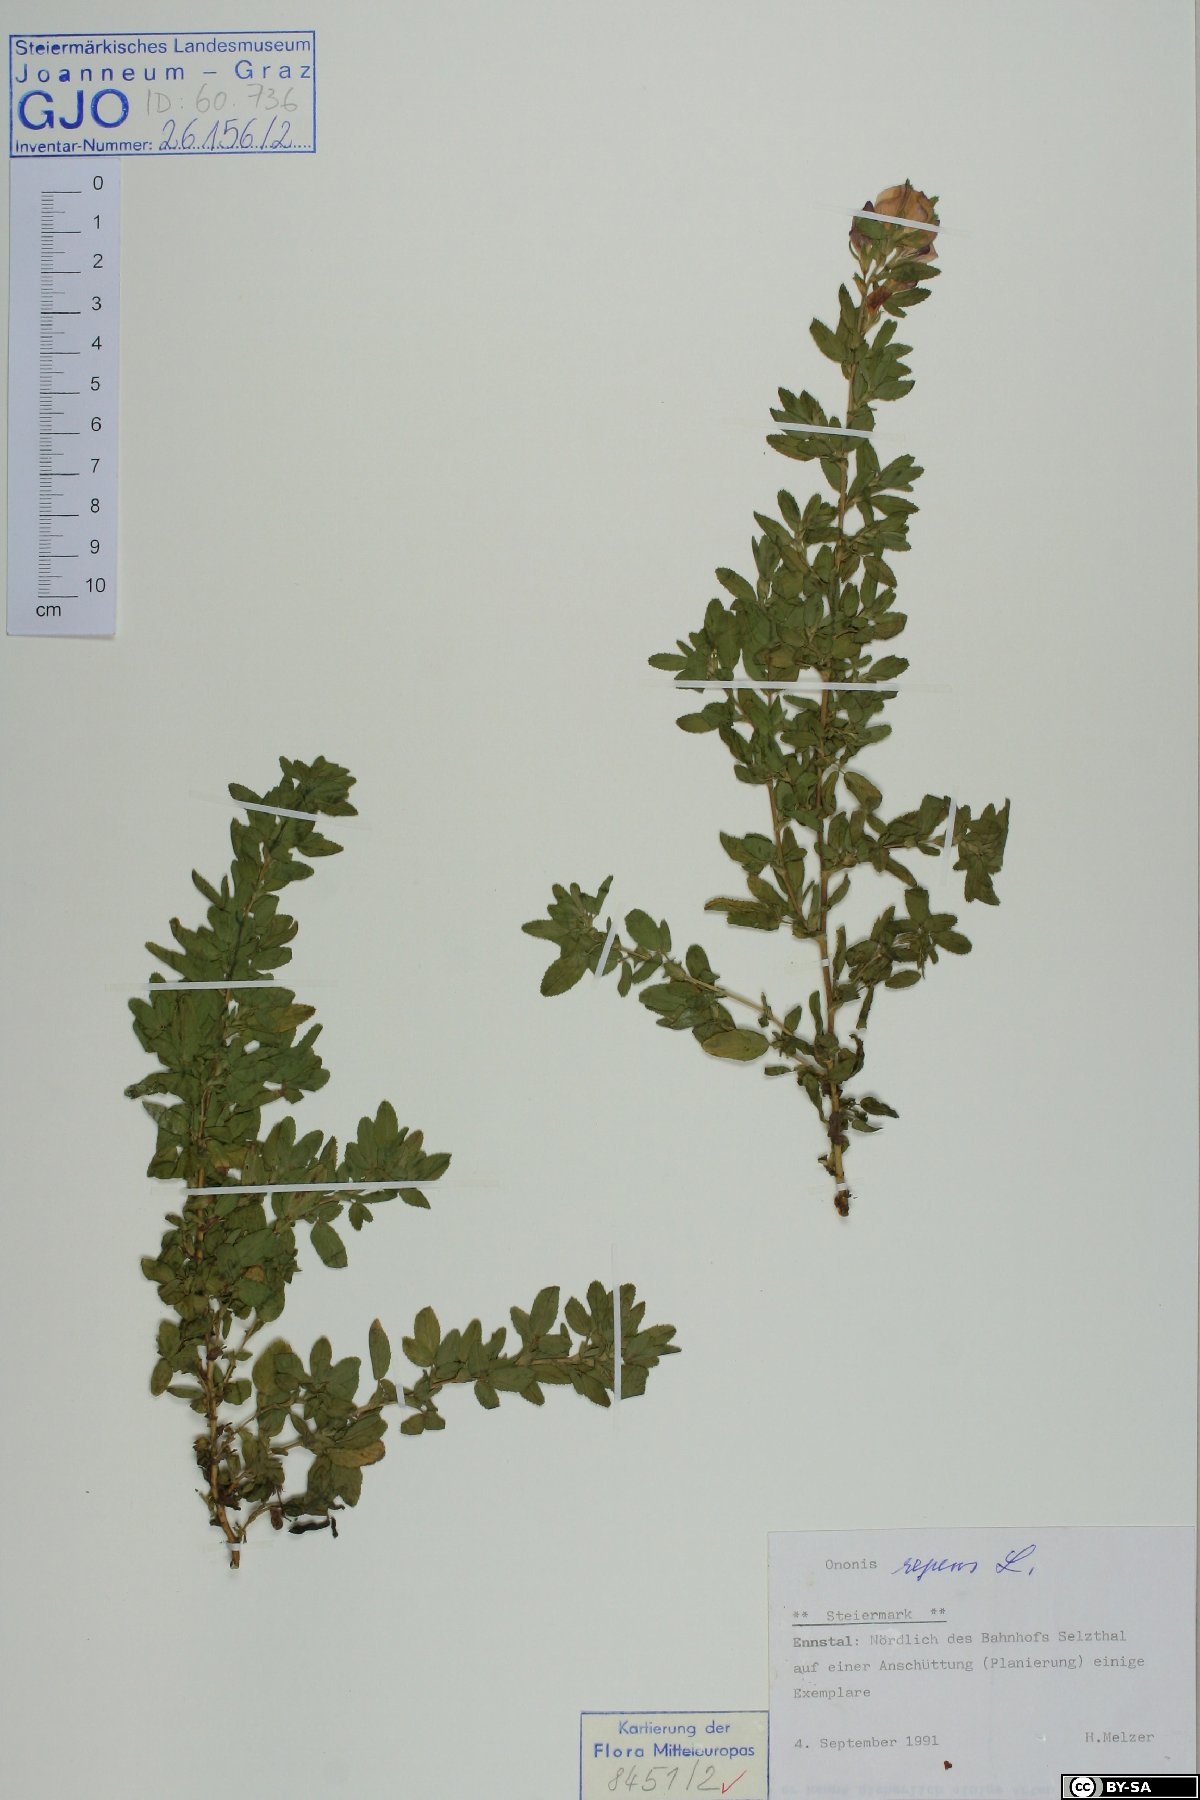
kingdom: Plantae
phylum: Tracheophyta
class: Magnoliopsida
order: Fabales
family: Fabaceae
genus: Ononis
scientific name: Ononis spinosa
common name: Spiny restharrow
